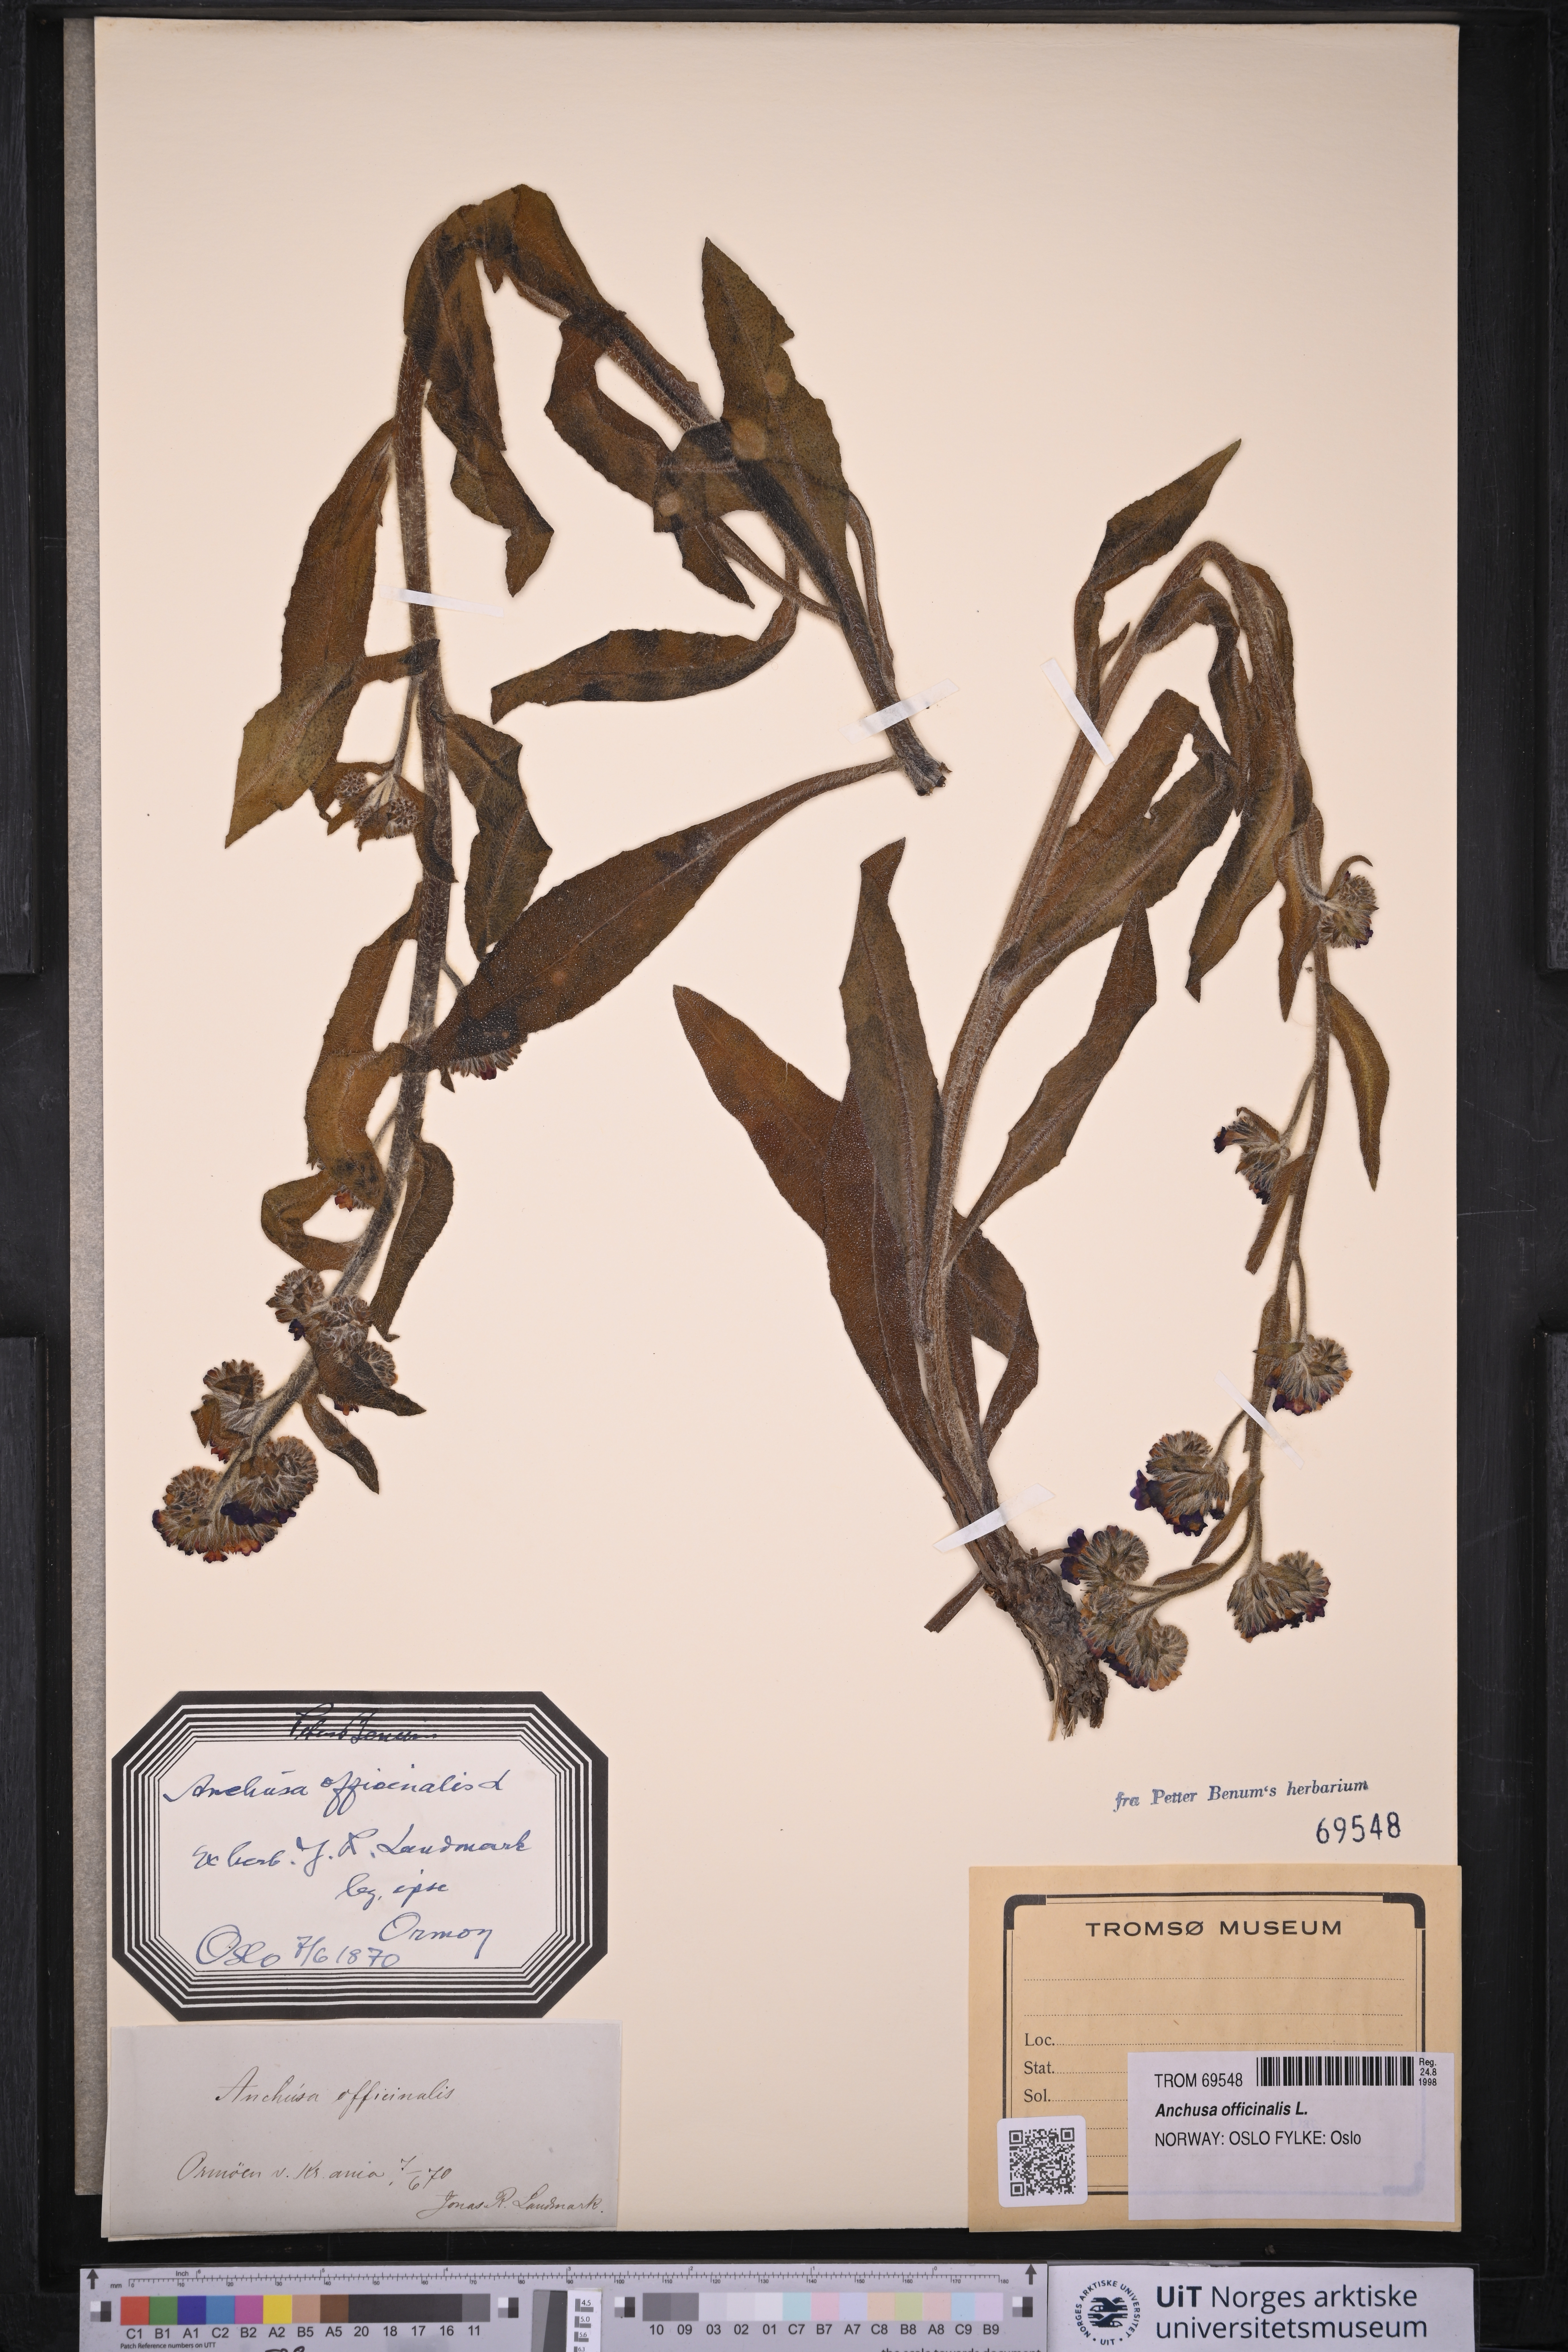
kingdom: Plantae
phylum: Tracheophyta
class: Magnoliopsida
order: Boraginales
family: Boraginaceae
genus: Anchusa
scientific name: Anchusa officinalis
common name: Alkanet
